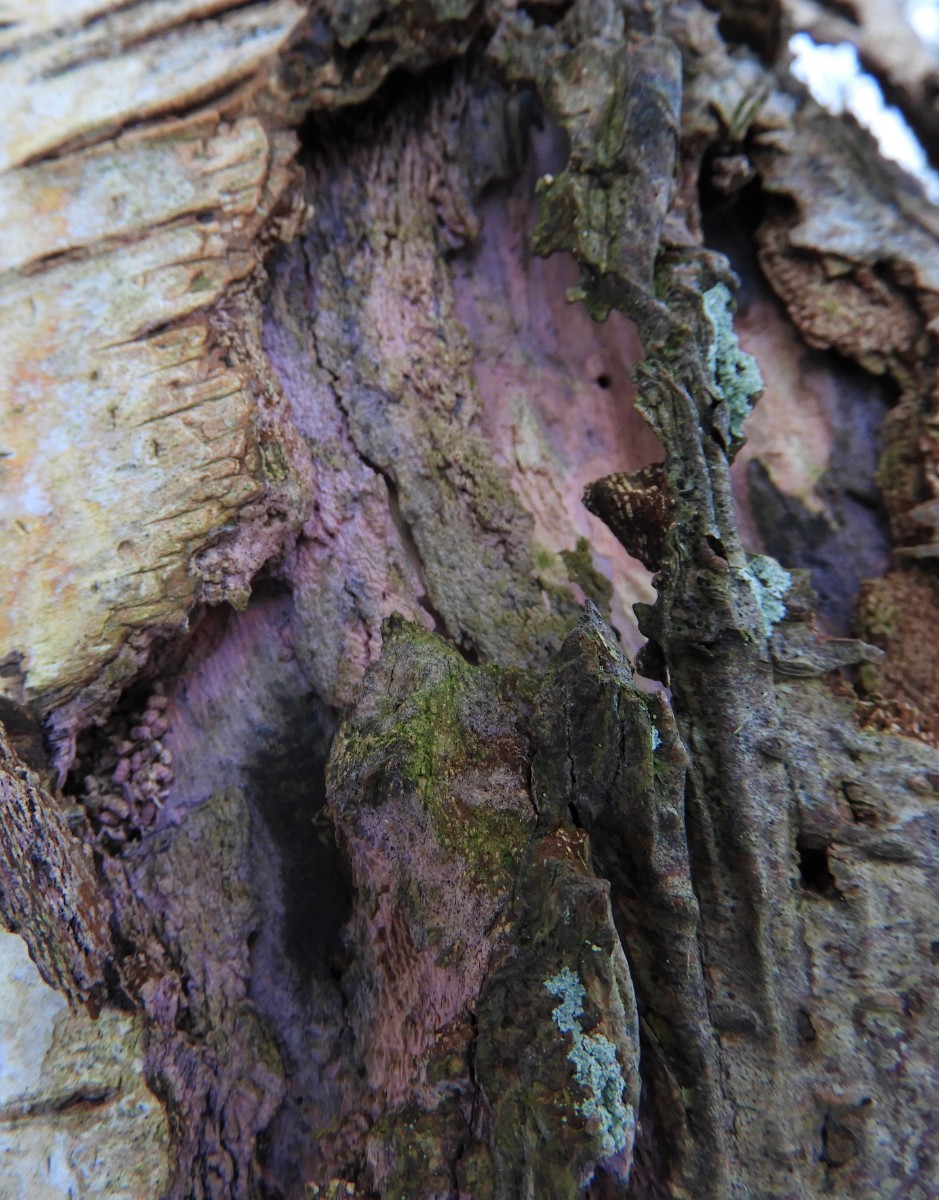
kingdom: Fungi
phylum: Basidiomycota
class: Agaricomycetes
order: Cantharellales
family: Tulasnellaceae
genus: Tulasnella
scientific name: Tulasnella violea
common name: violet ballonhinde
